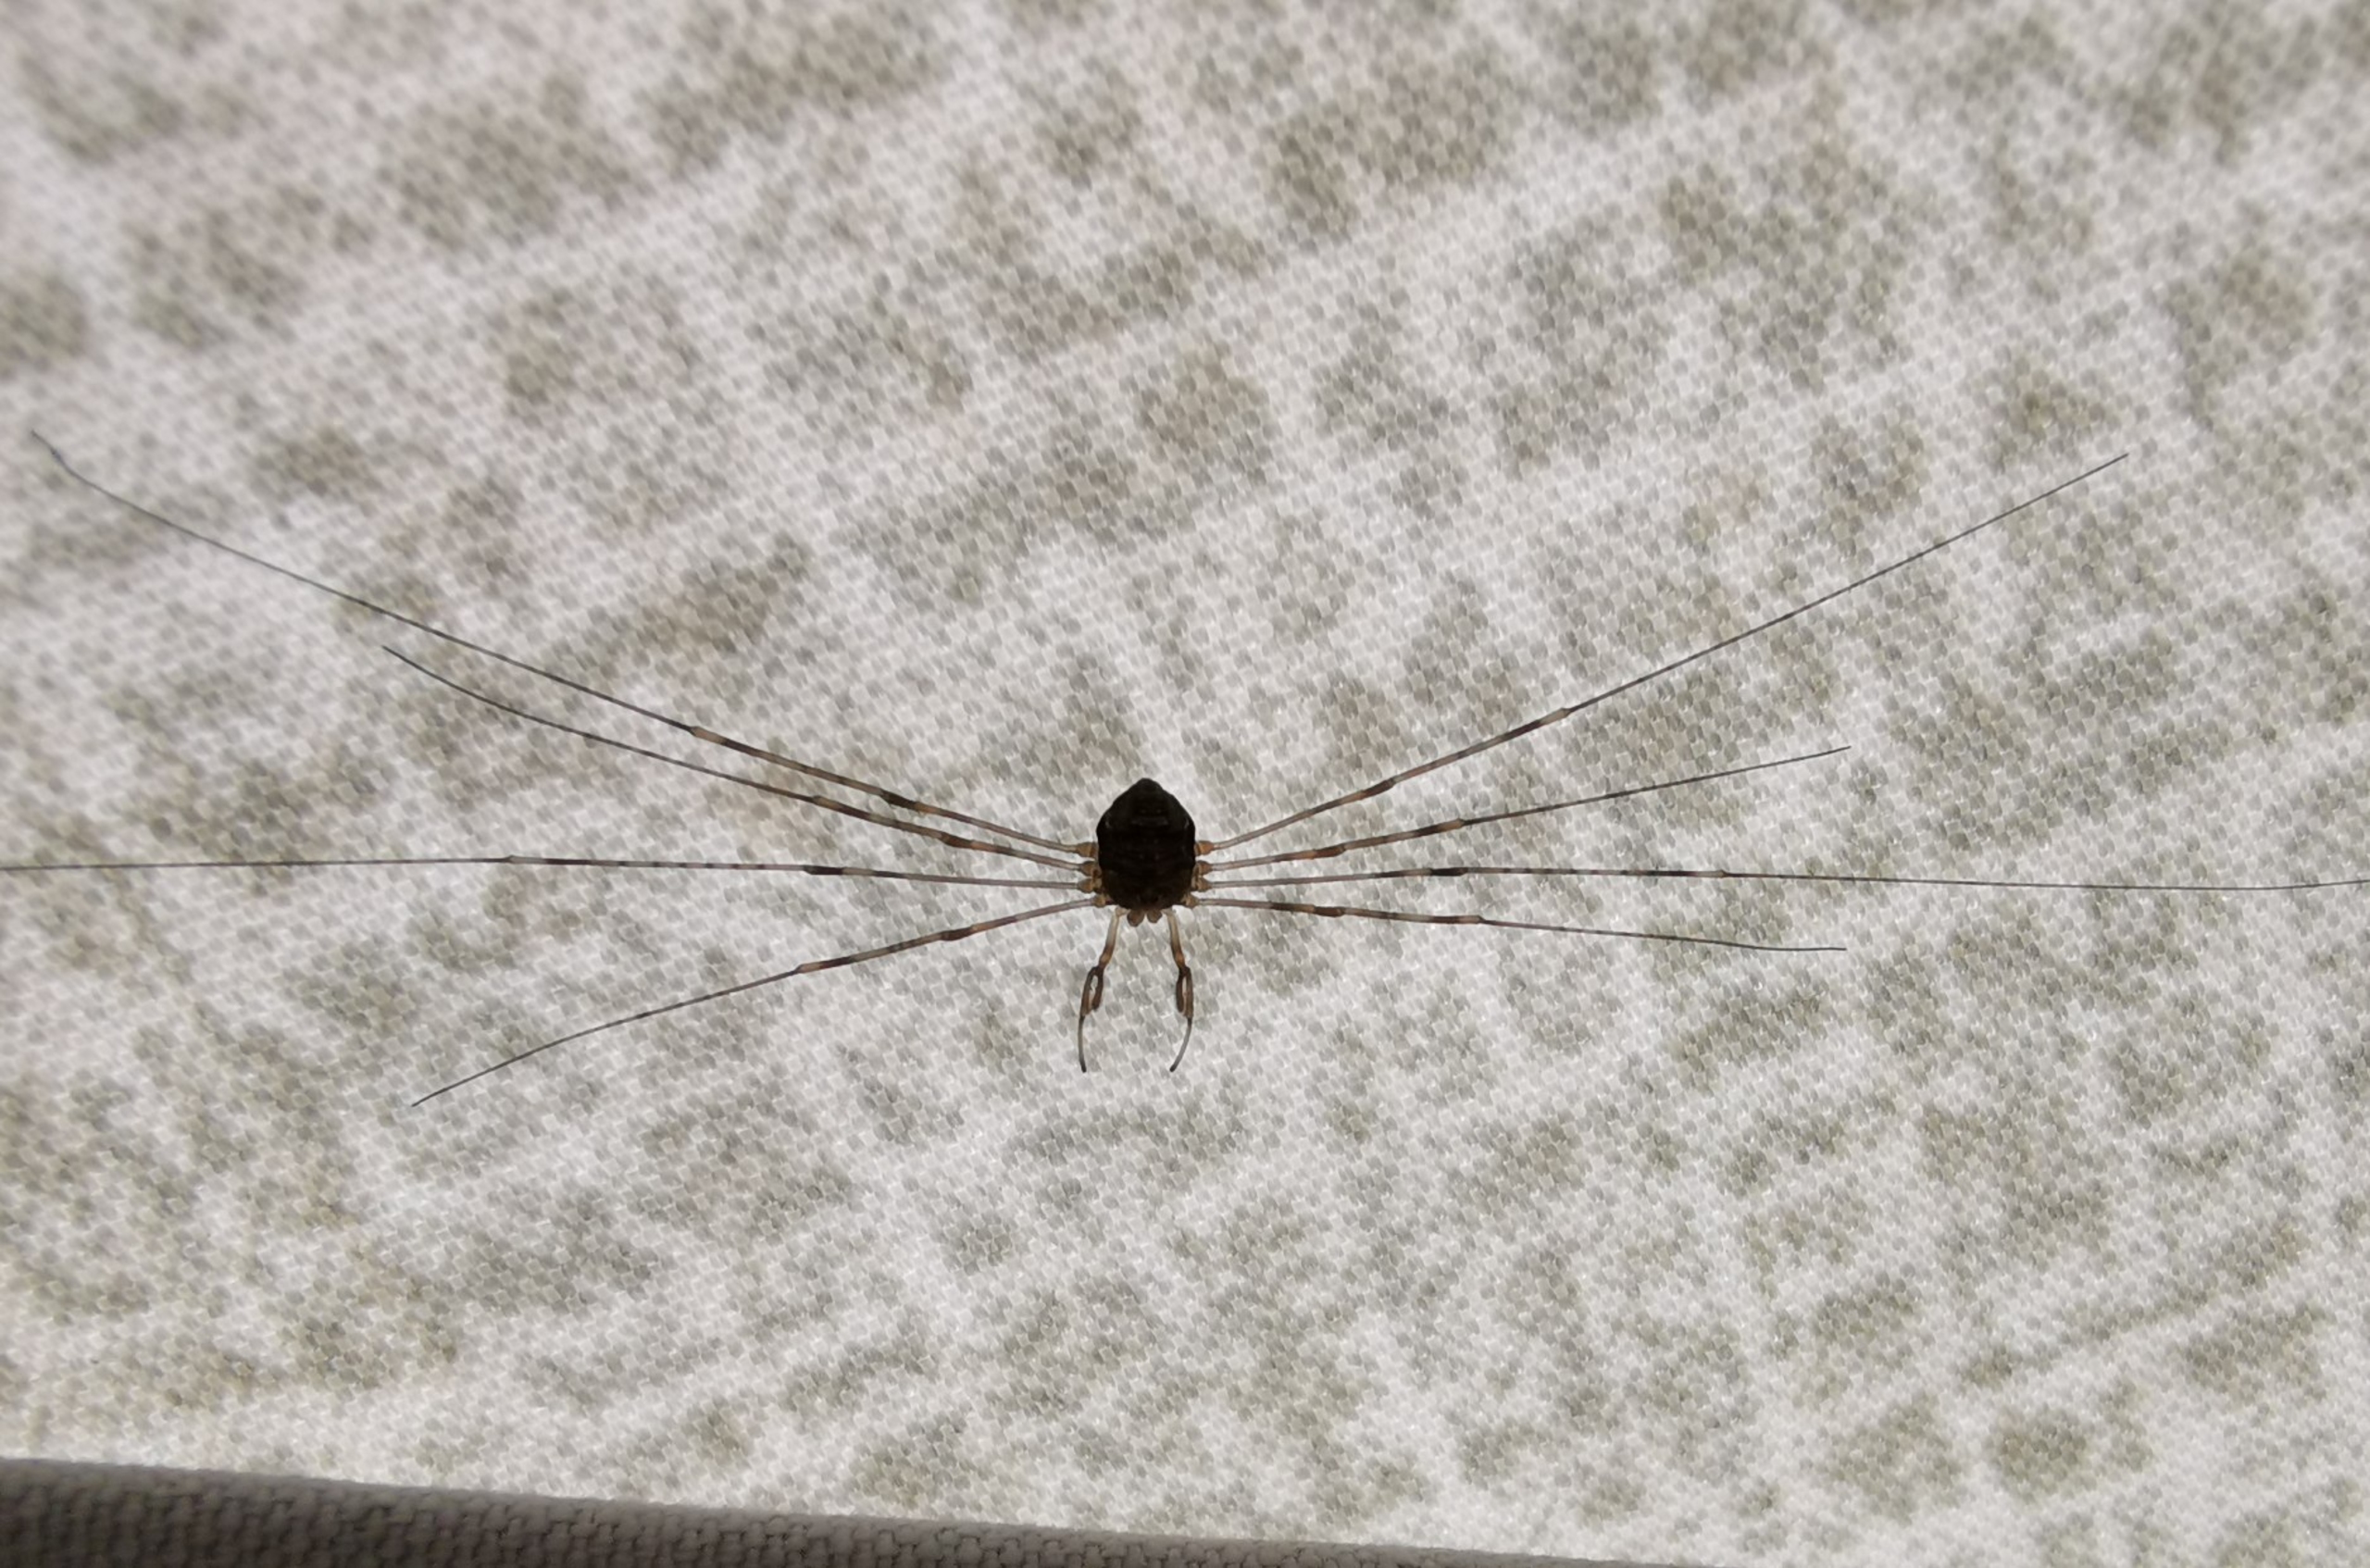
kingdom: Animalia
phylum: Arthropoda
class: Arachnida
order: Opiliones
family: Phalangiidae
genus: Dicranopalpus
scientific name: Dicranopalpus ramosus
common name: Gaffelmejer
